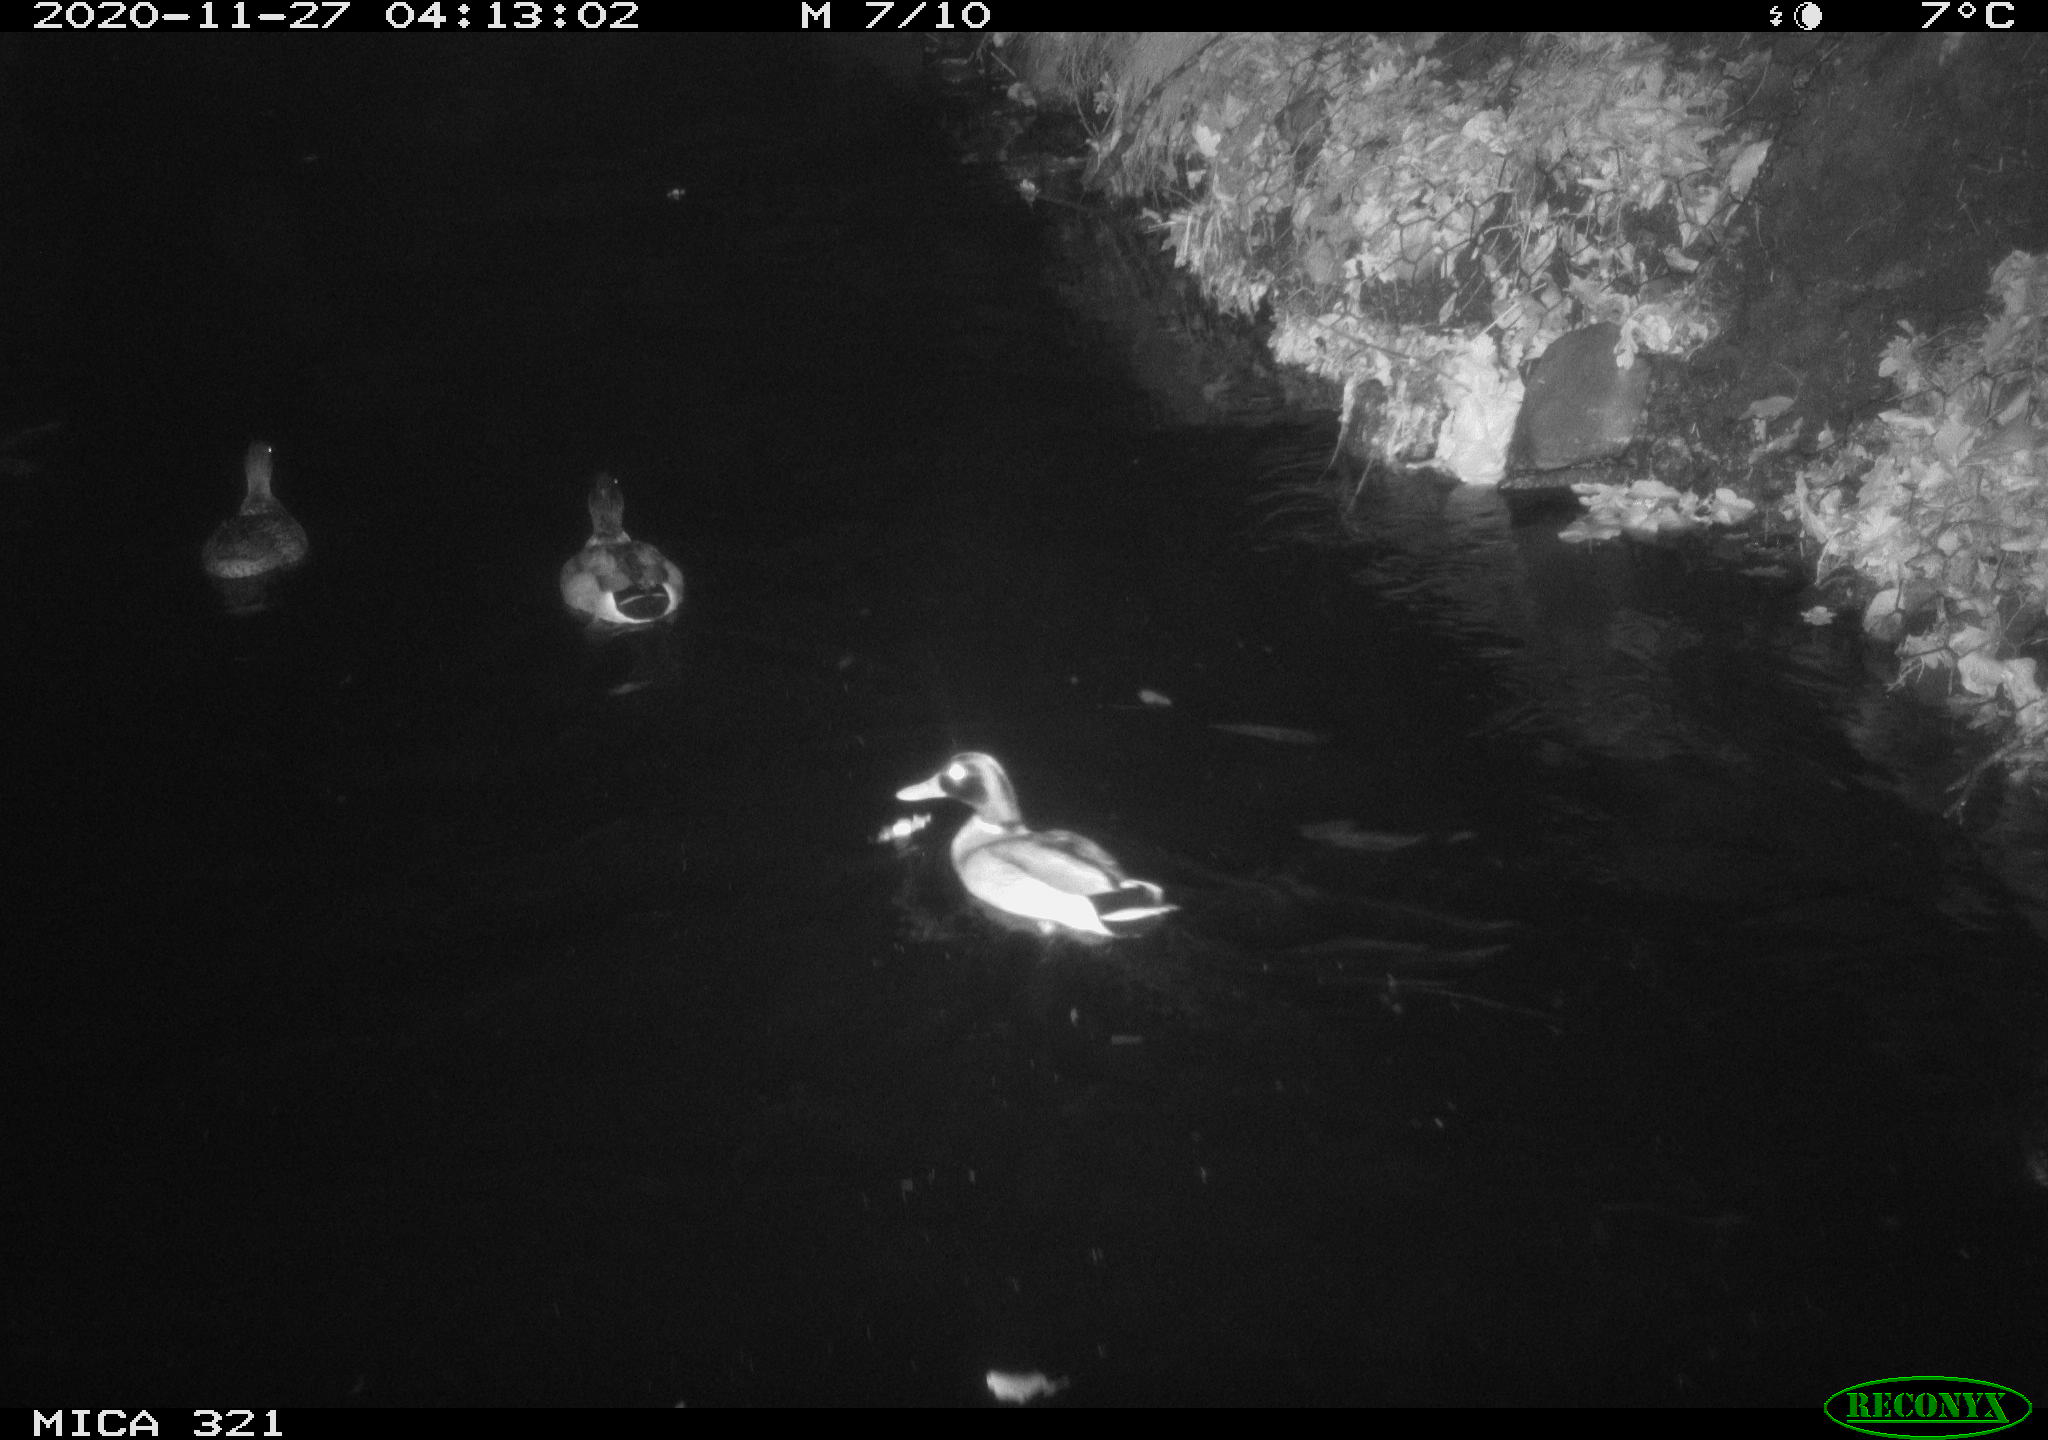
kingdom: Animalia
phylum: Chordata
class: Aves
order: Anseriformes
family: Anatidae
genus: Anas
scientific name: Anas platyrhynchos
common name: Mallard
